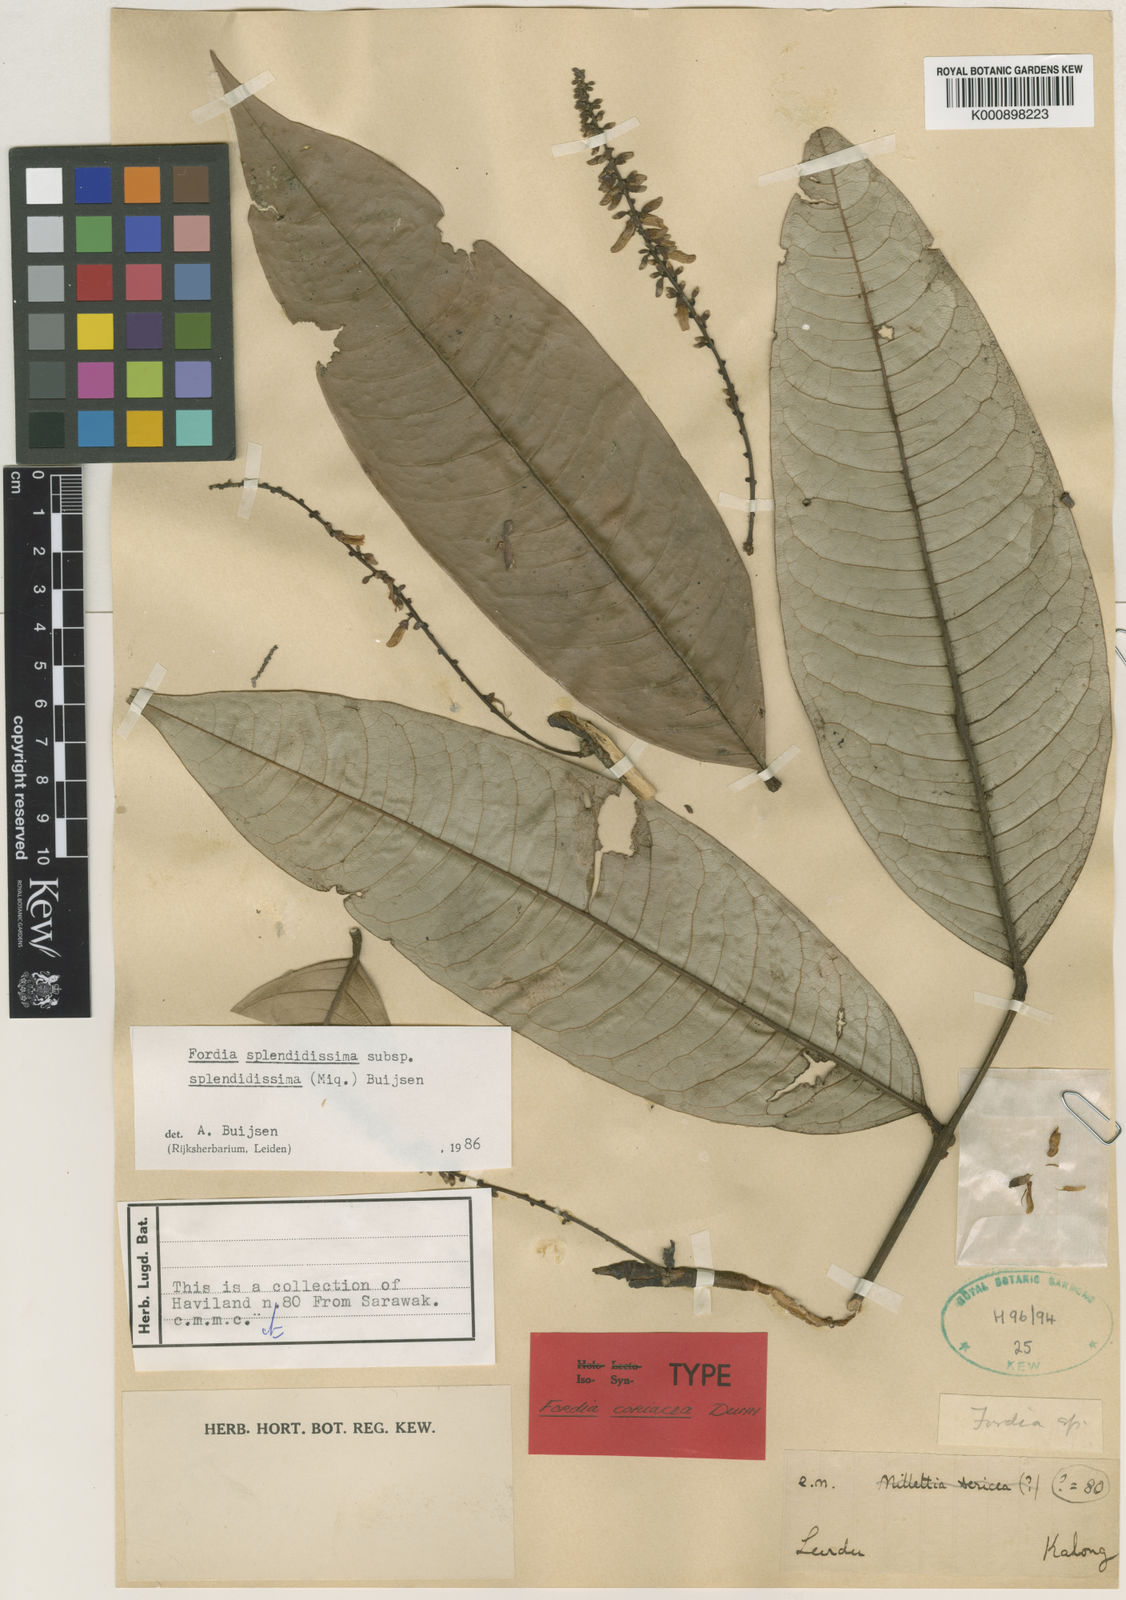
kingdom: Plantae
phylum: Tracheophyta
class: Magnoliopsida
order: Fabales
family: Fabaceae
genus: Fordia
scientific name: Fordia splendidissima
